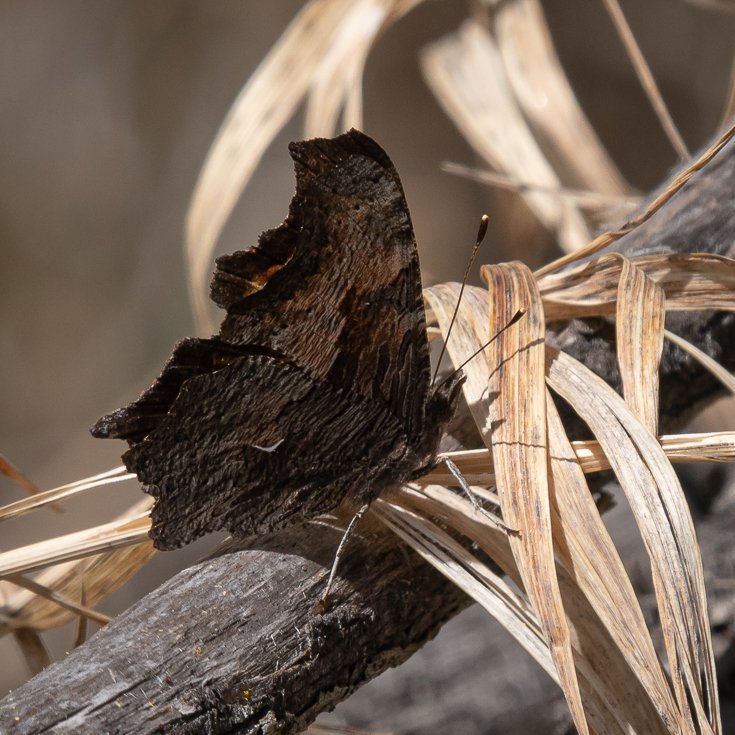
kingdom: Animalia
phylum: Arthropoda
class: Insecta
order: Lepidoptera
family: Nymphalidae
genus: Polygonia
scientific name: Polygonia progne
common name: Gray Comma
